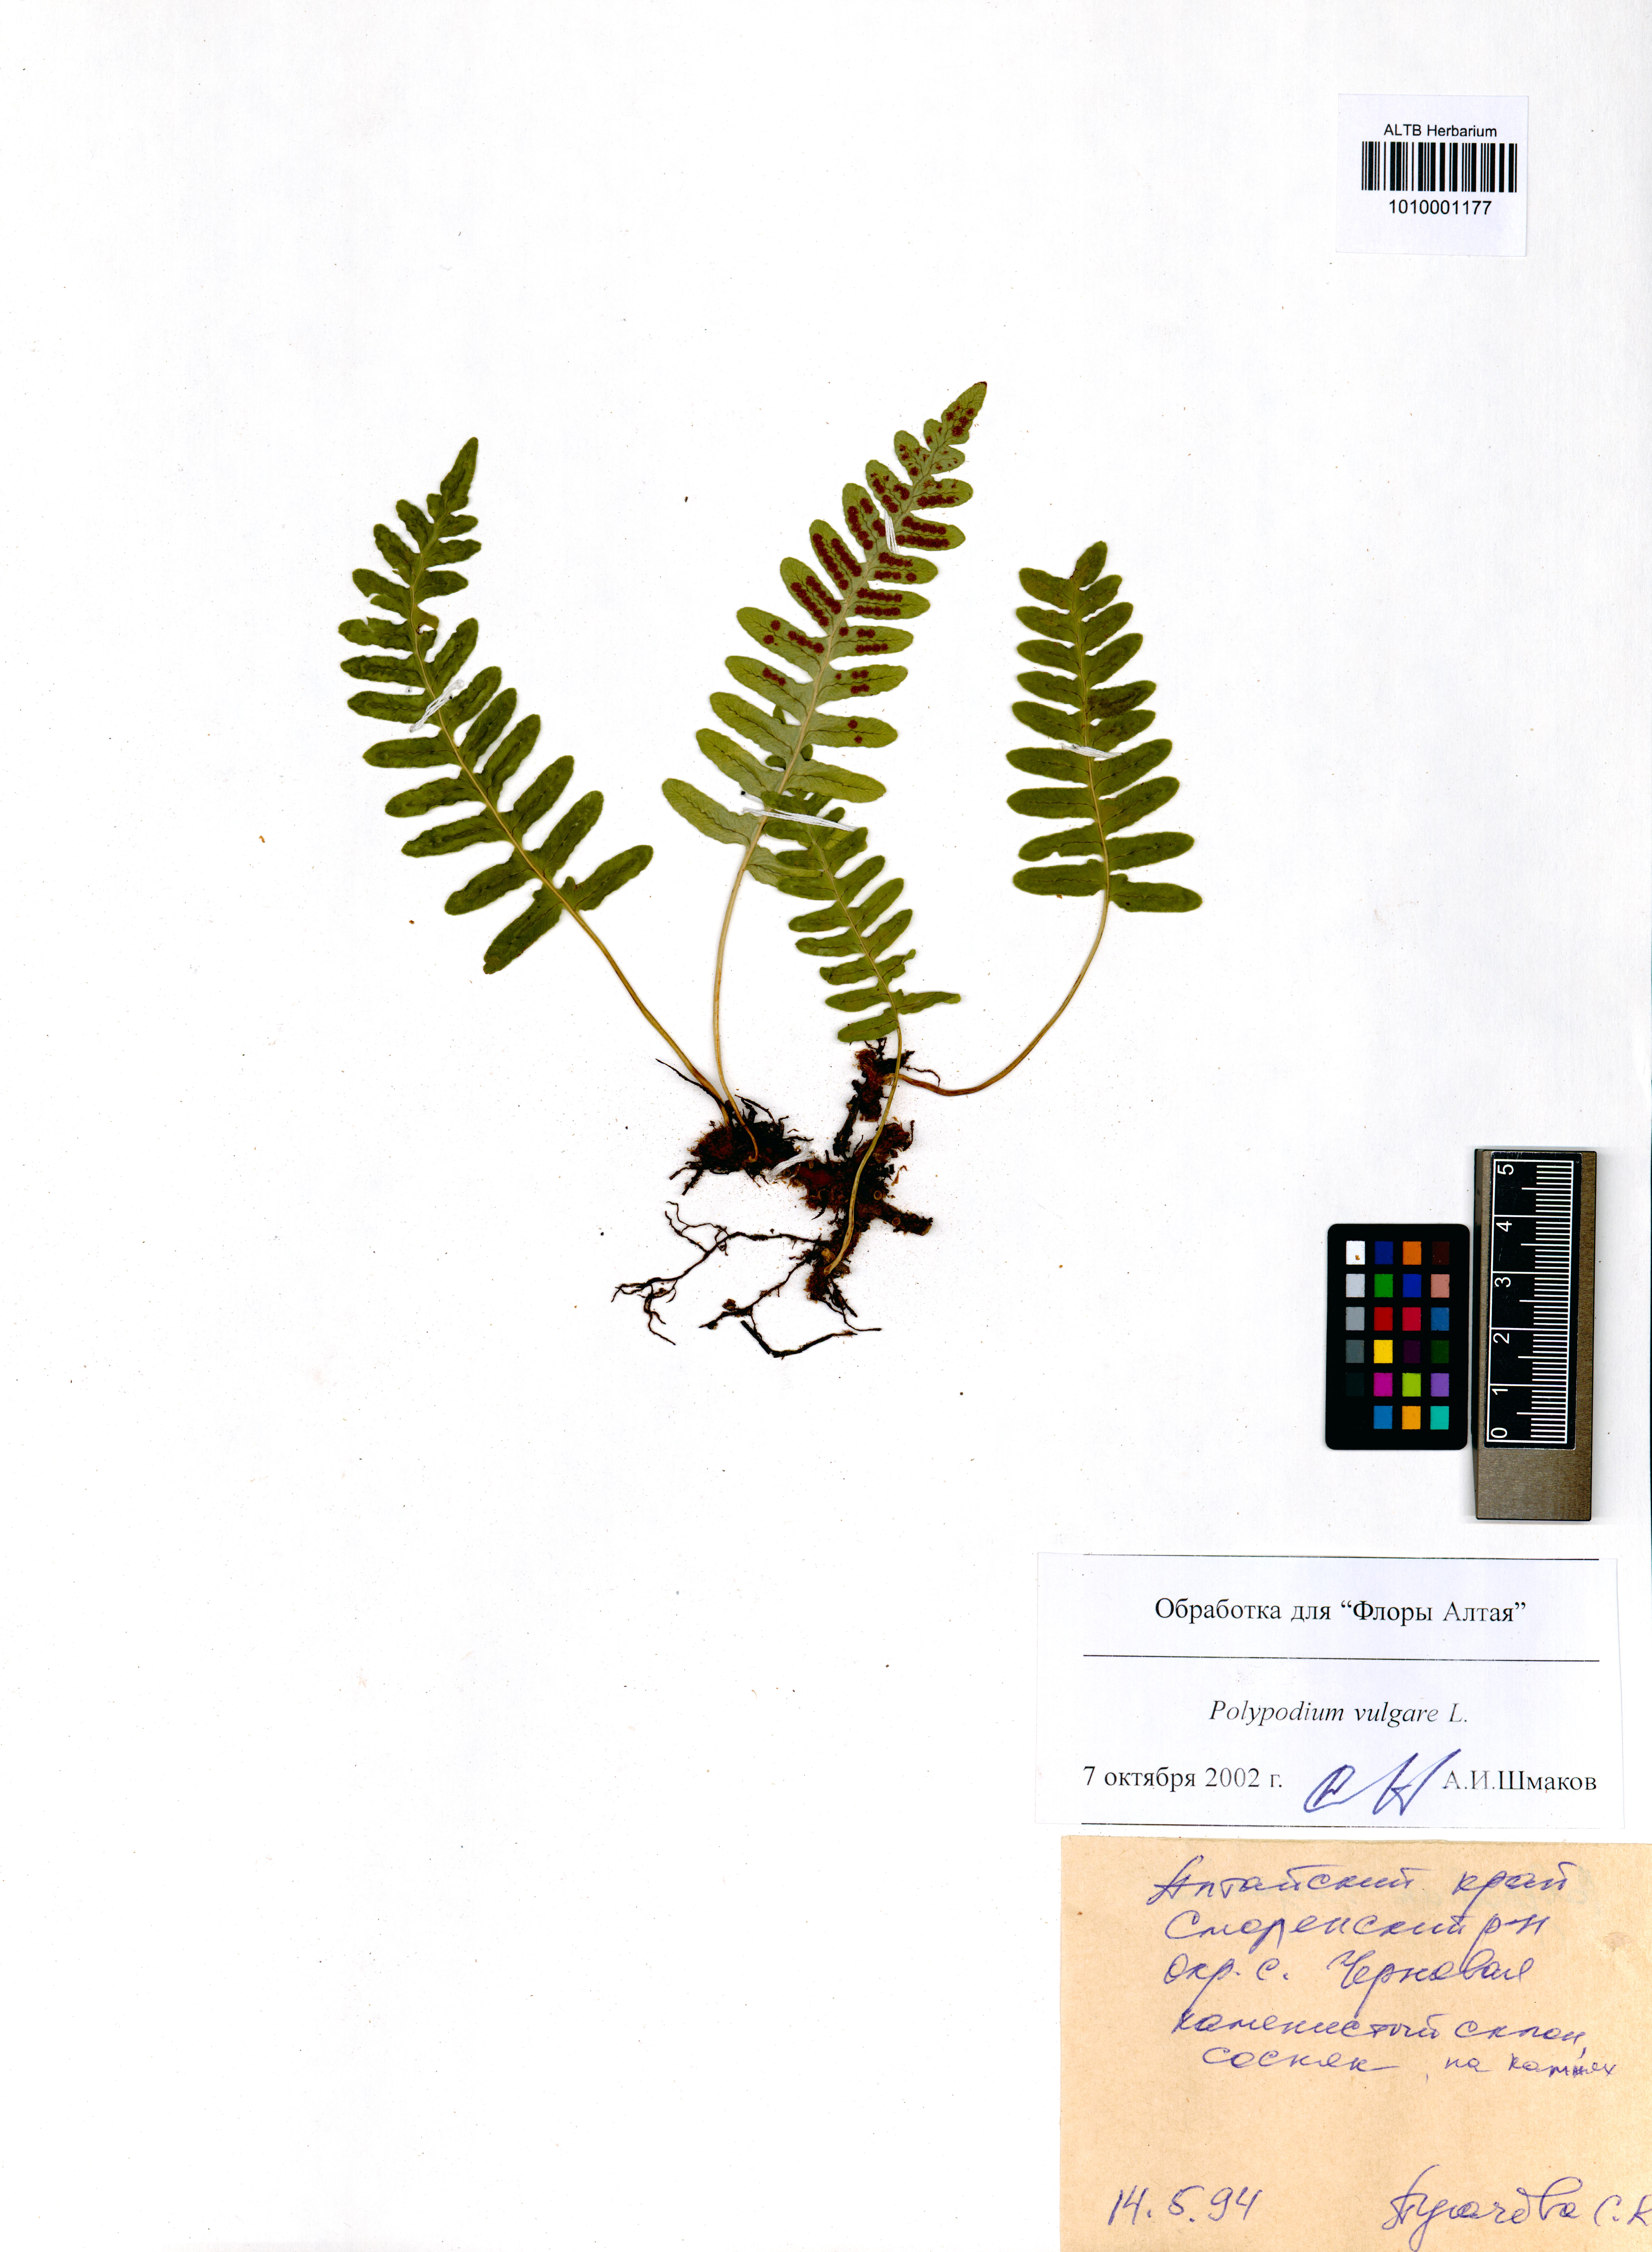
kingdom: Plantae
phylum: Tracheophyta
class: Polypodiopsida
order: Polypodiales
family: Polypodiaceae
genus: Polypodium
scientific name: Polypodium vulgare
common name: Common polypody
